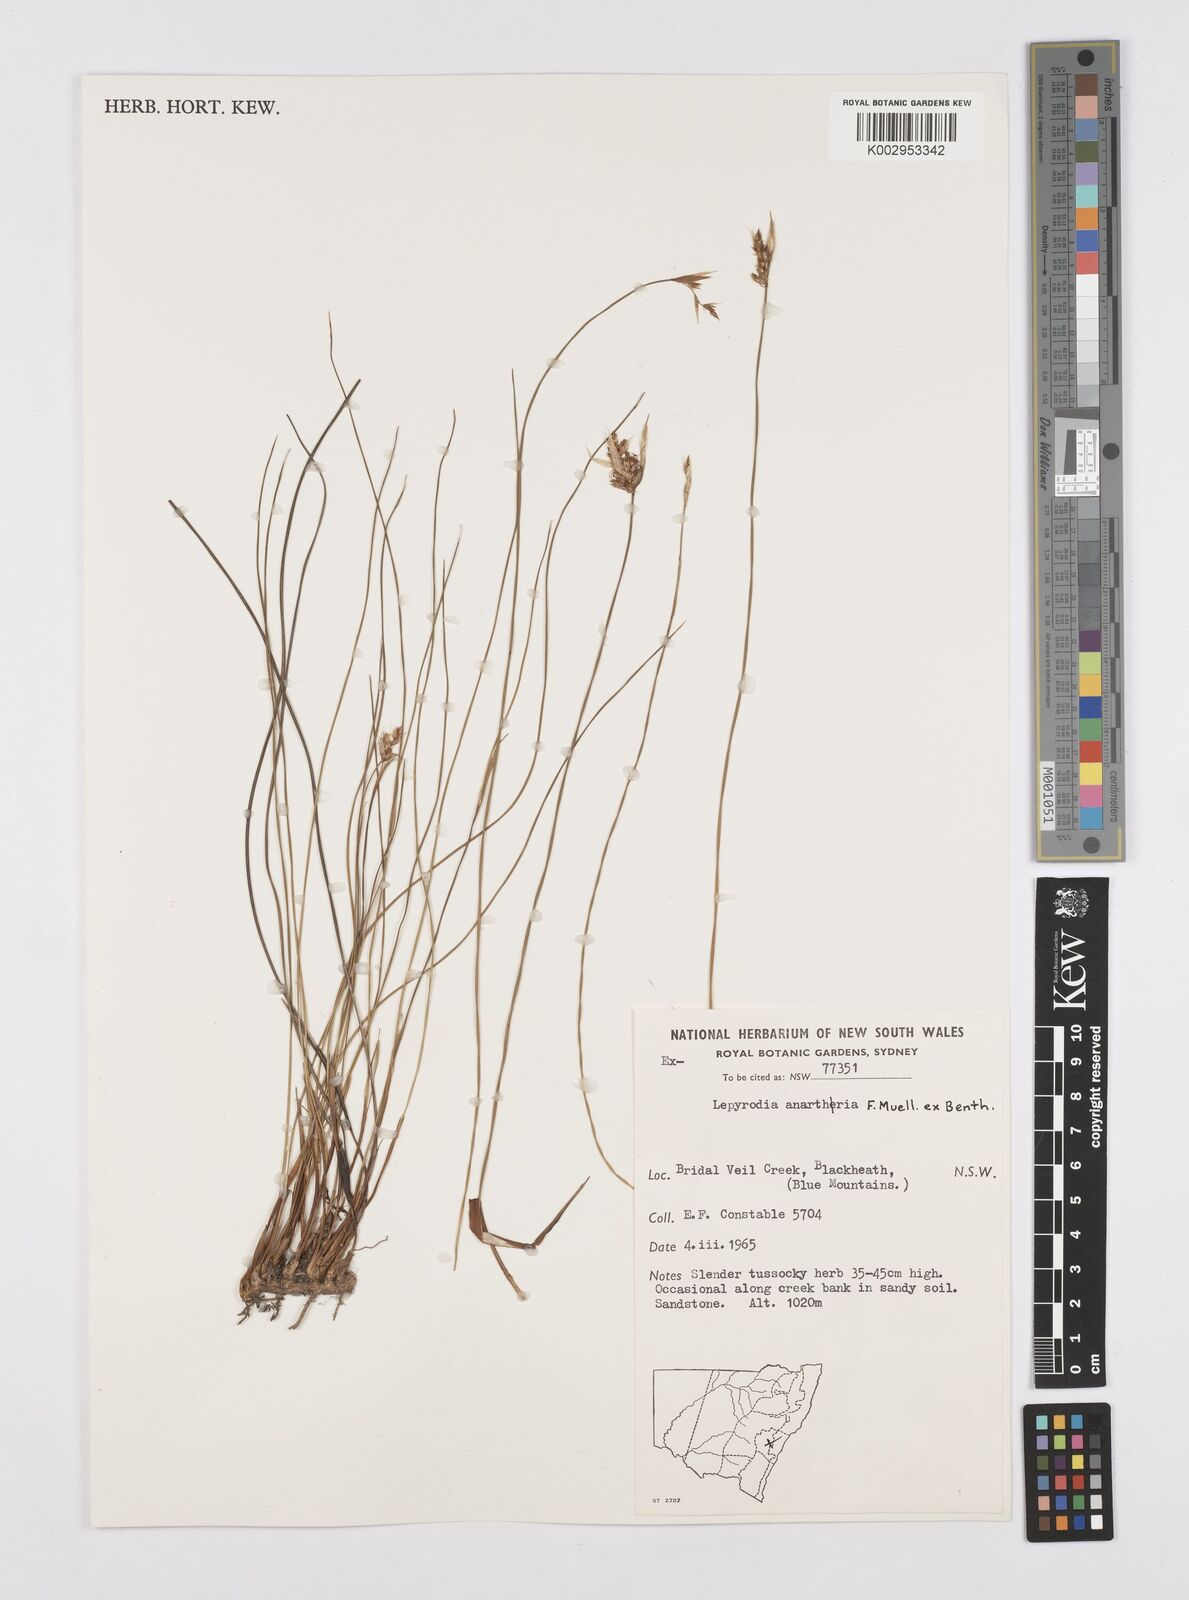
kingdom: Plantae
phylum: Tracheophyta
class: Liliopsida
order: Poales
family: Restionaceae
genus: Lepyrodia
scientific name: Lepyrodia anarthria
